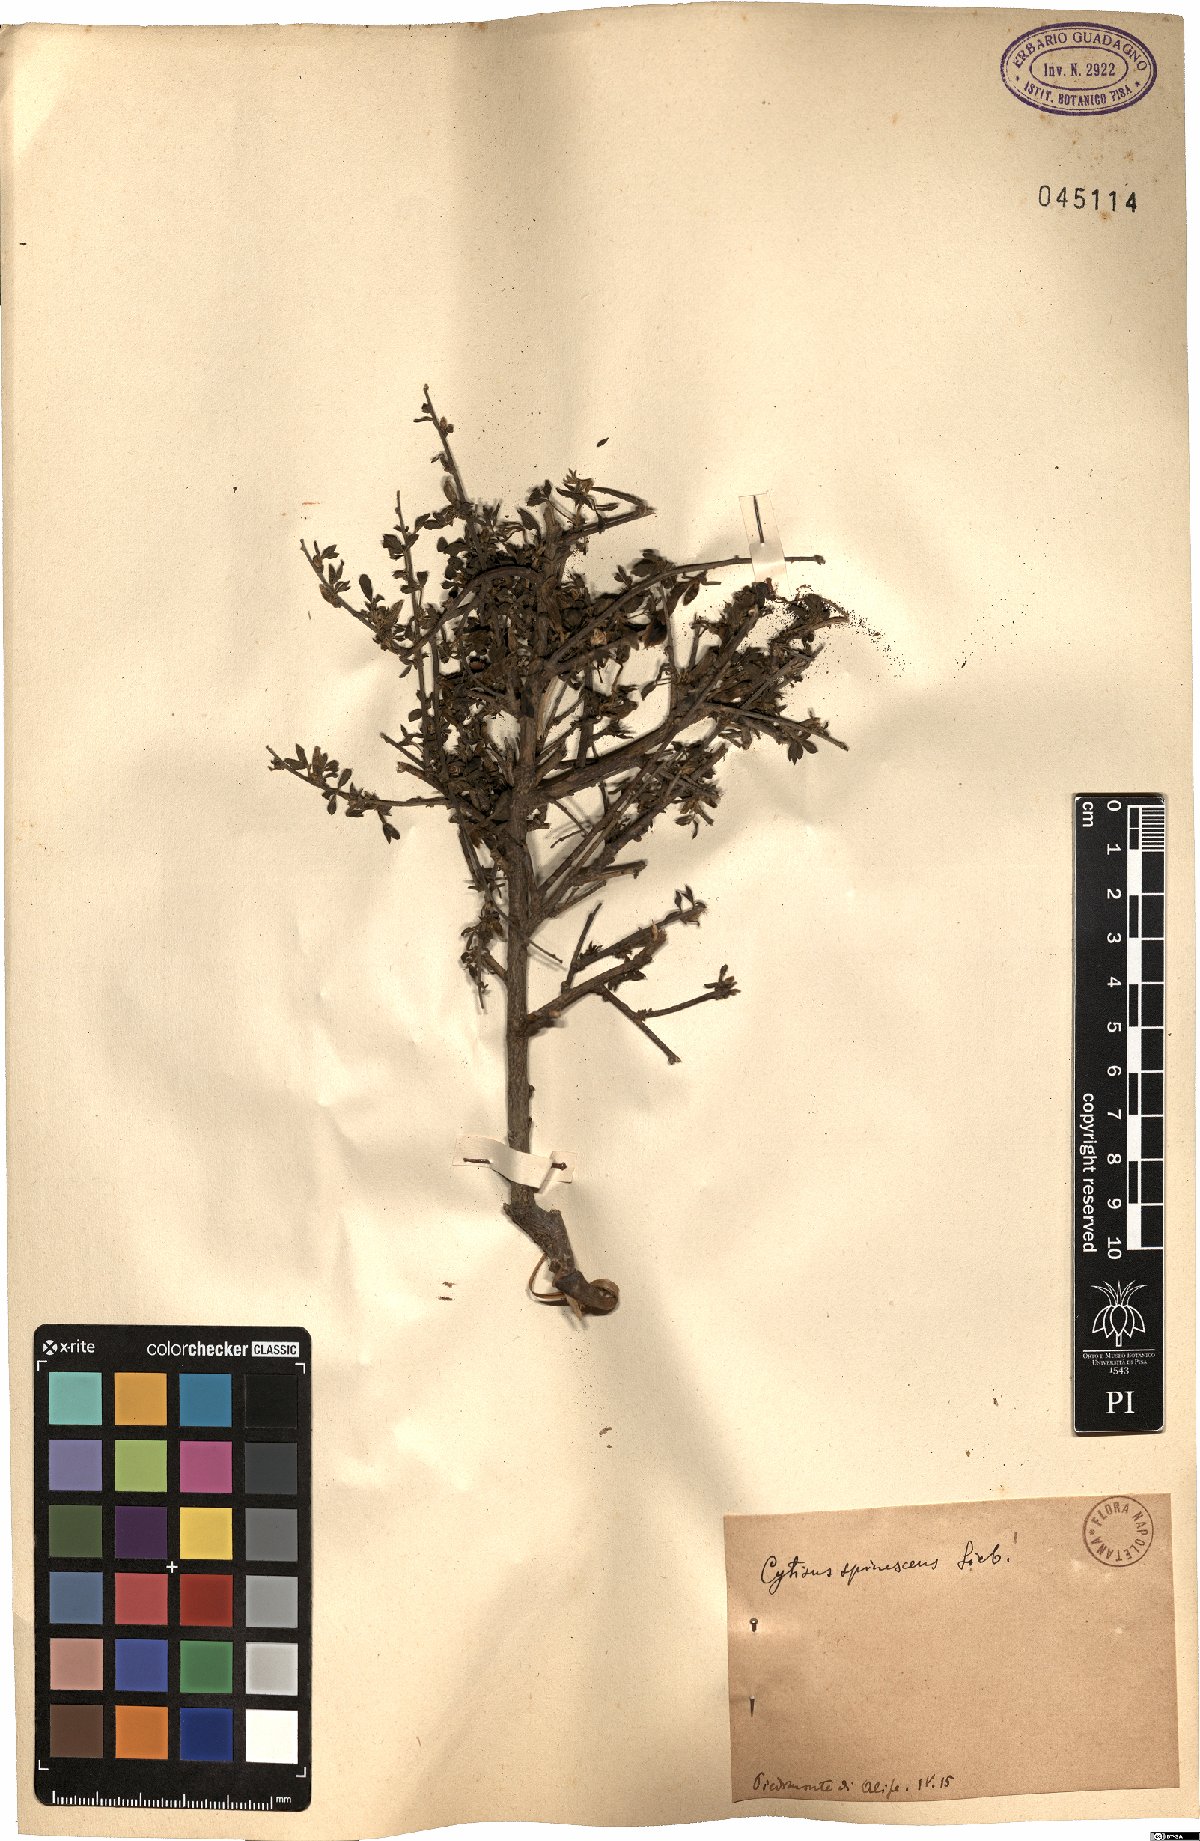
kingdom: Plantae
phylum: Tracheophyta
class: Magnoliopsida
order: Fabales
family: Fabaceae
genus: Chamaecytisus
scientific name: Chamaecytisus spinescens
